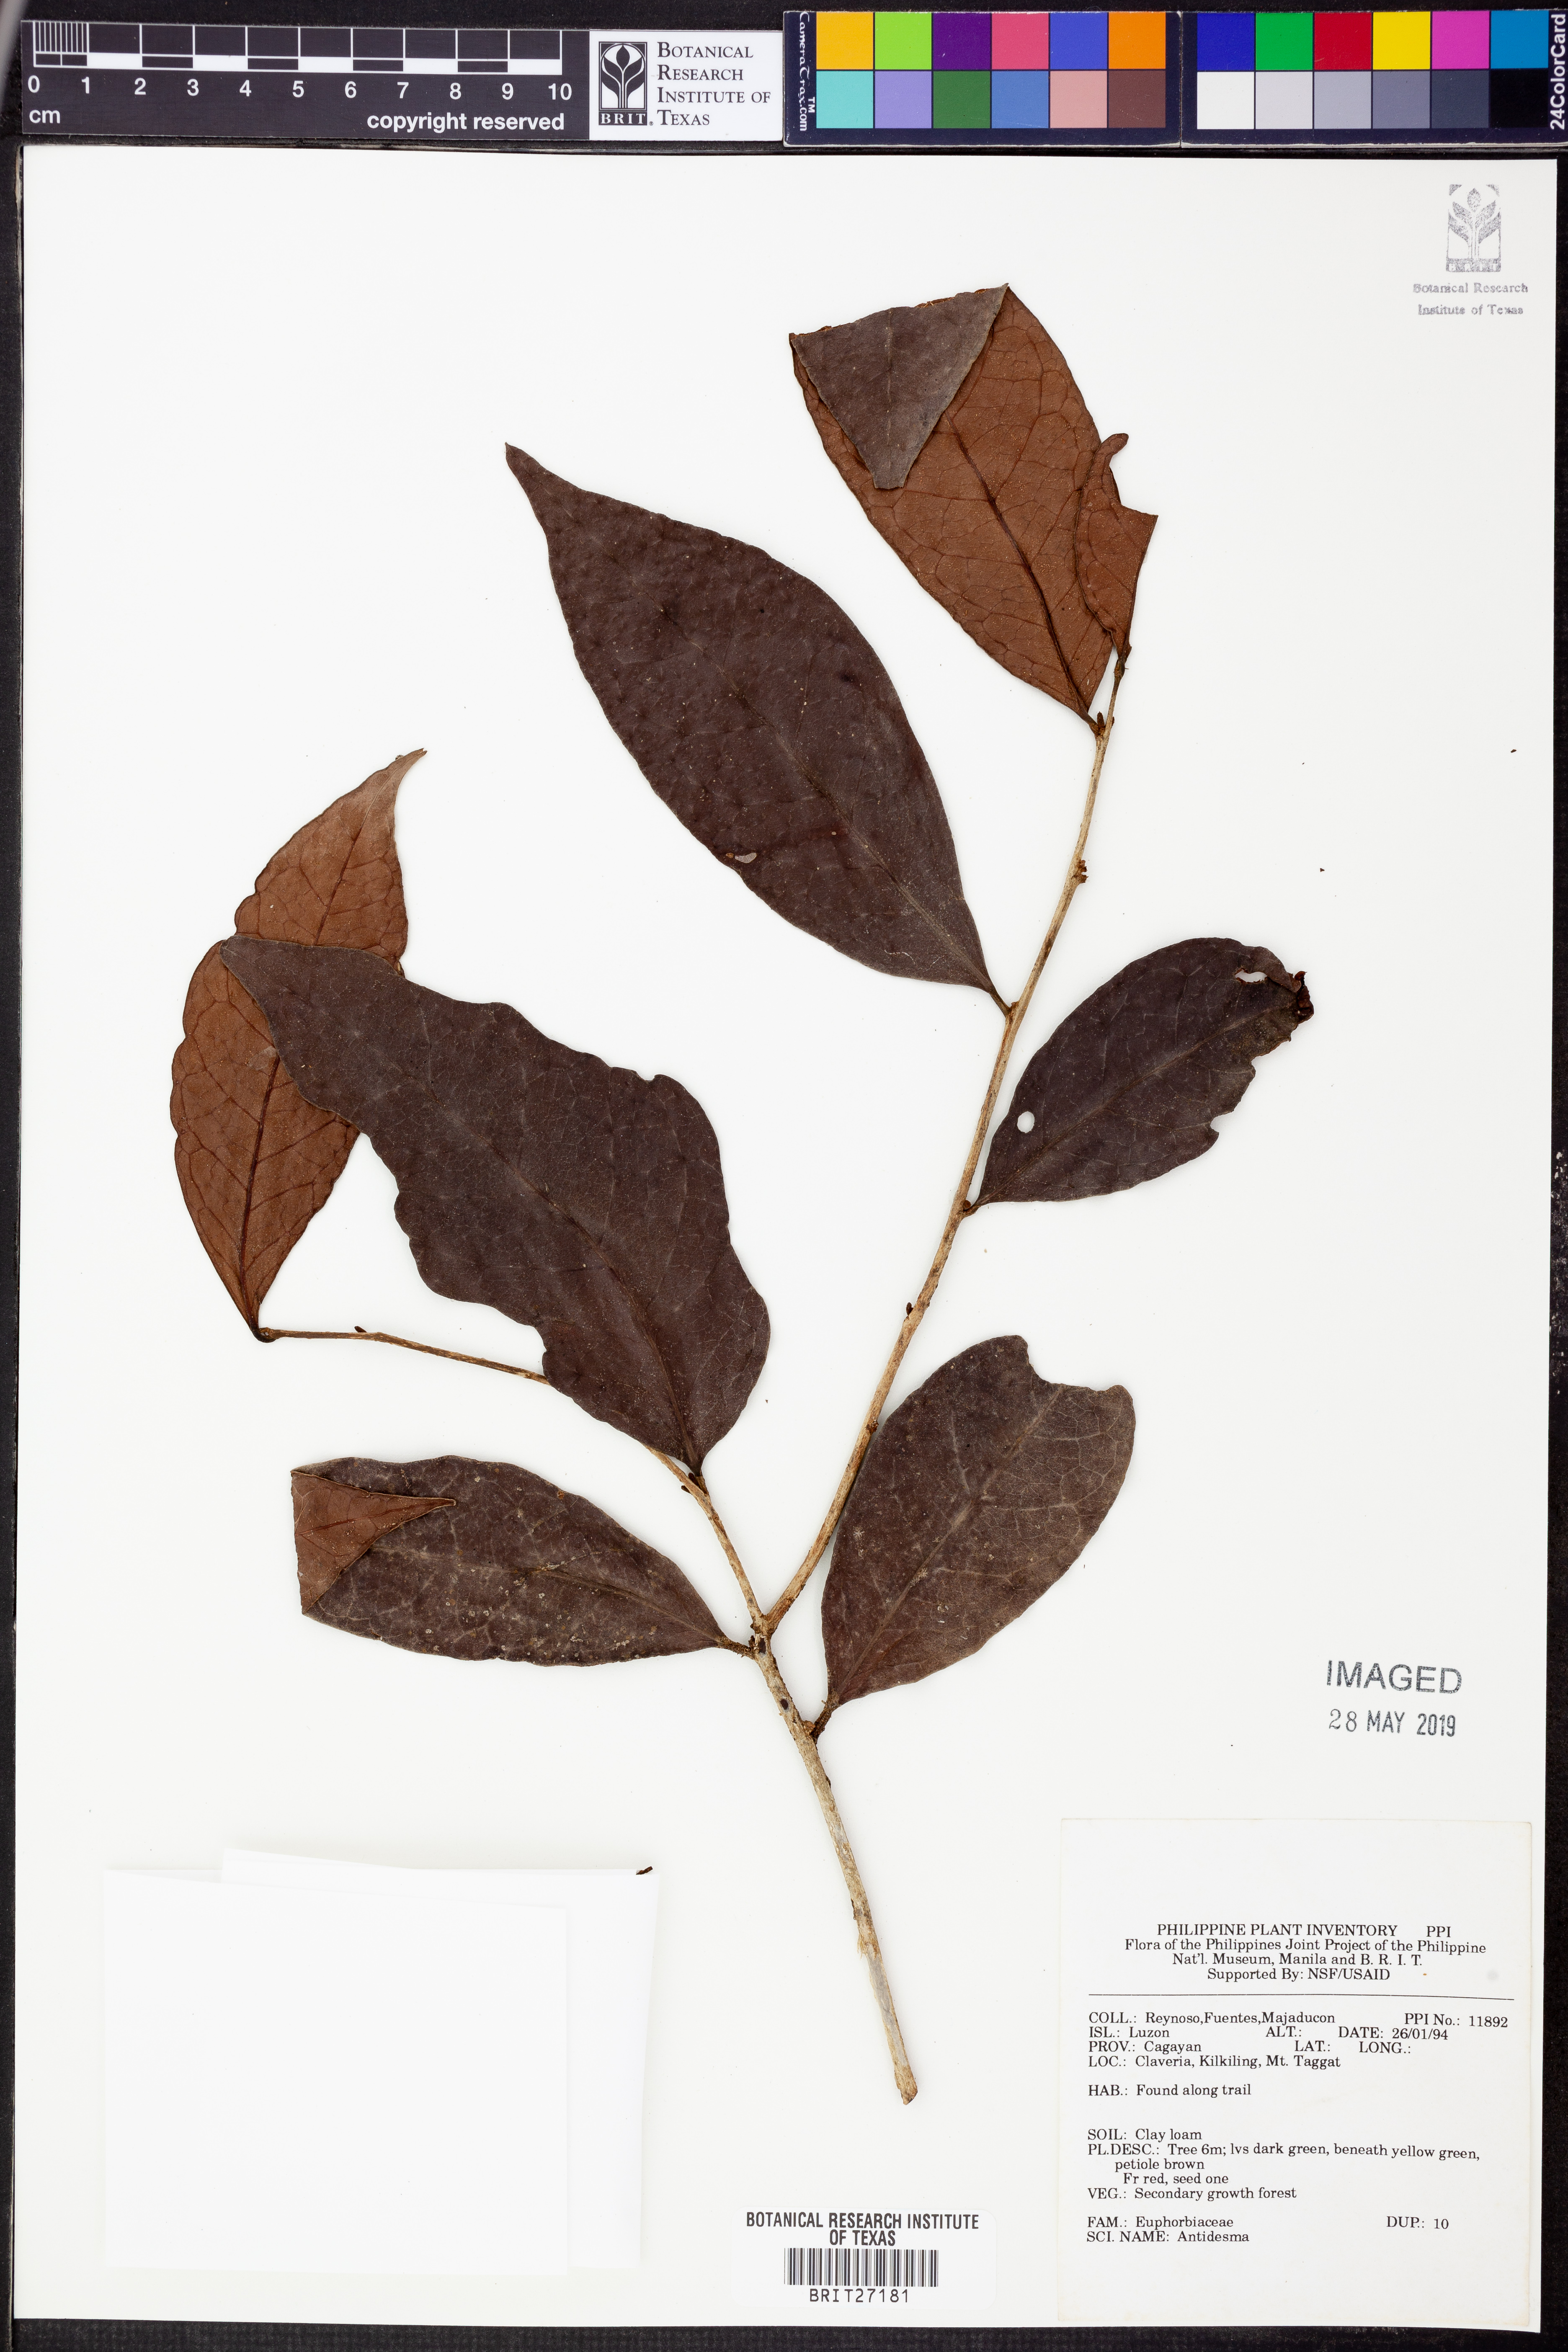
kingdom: Plantae
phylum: Tracheophyta
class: Magnoliopsida
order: Malpighiales
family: Phyllanthaceae
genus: Antidesma
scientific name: Antidesma
